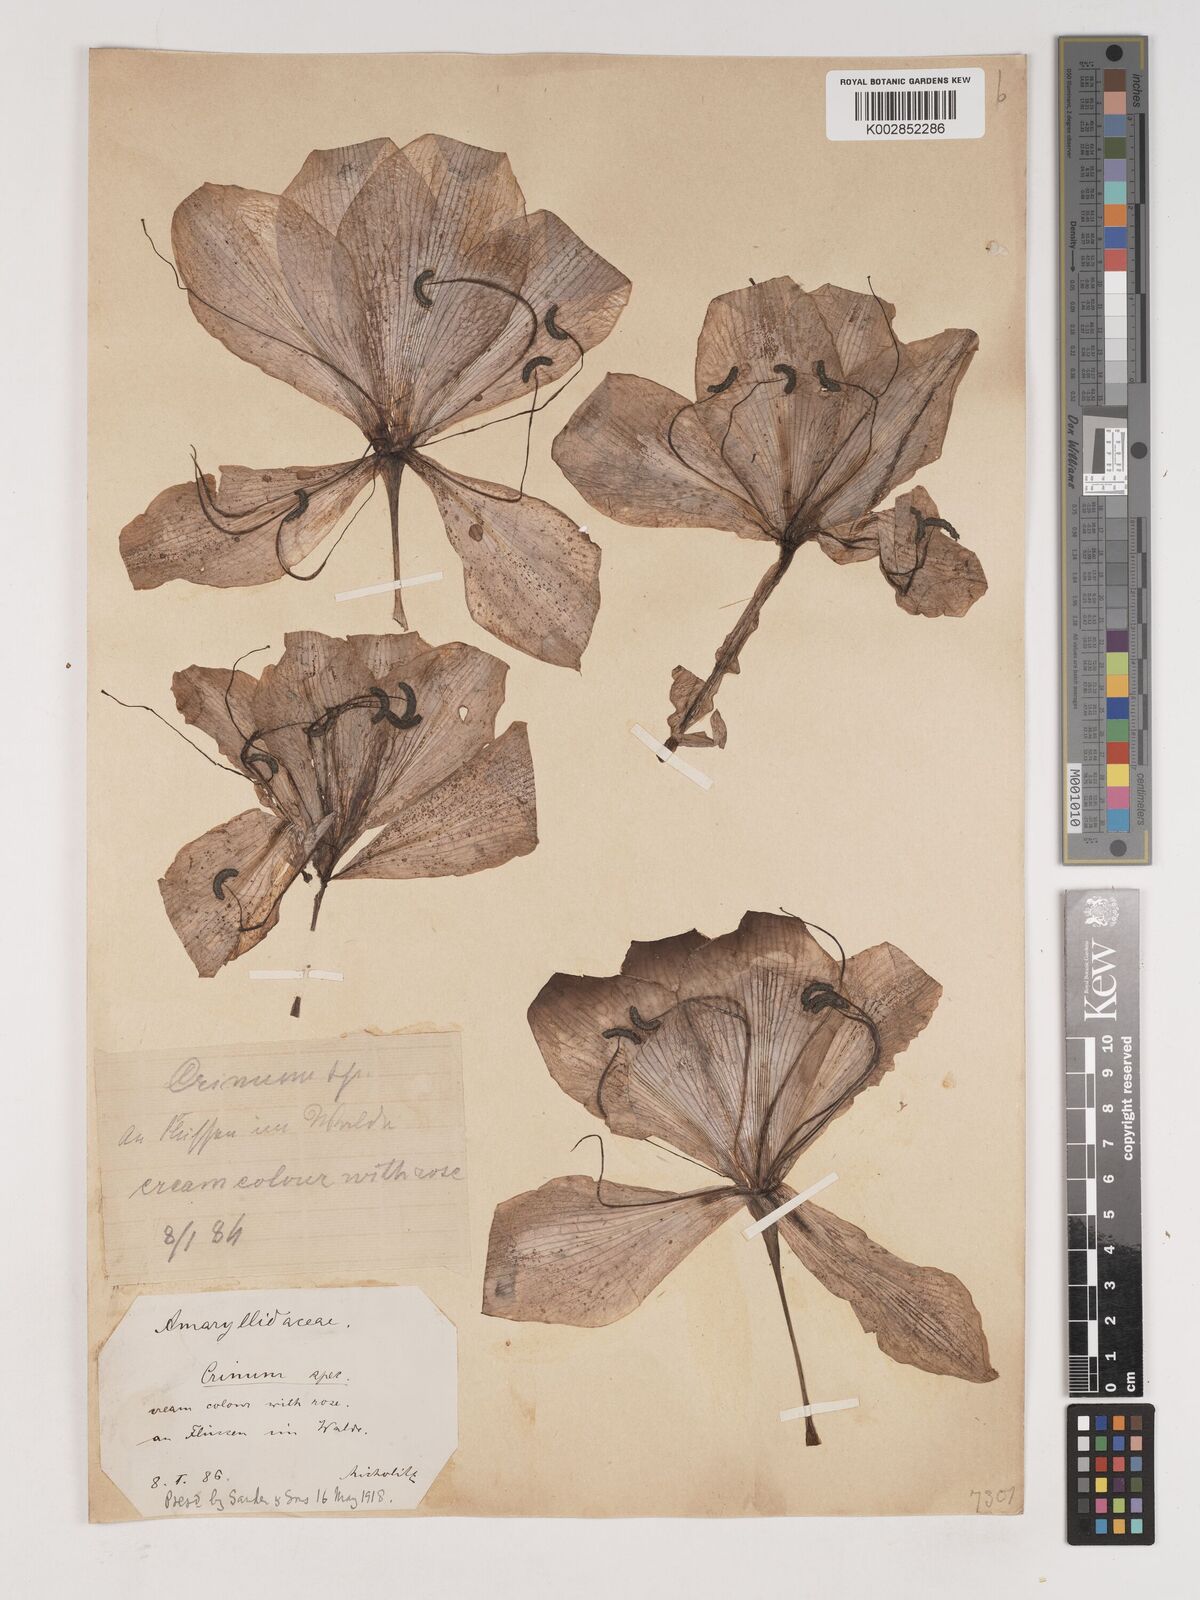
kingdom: Plantae
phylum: Tracheophyta
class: Liliopsida
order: Asparagales
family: Amaryllidaceae
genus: Crinum
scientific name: Crinum
